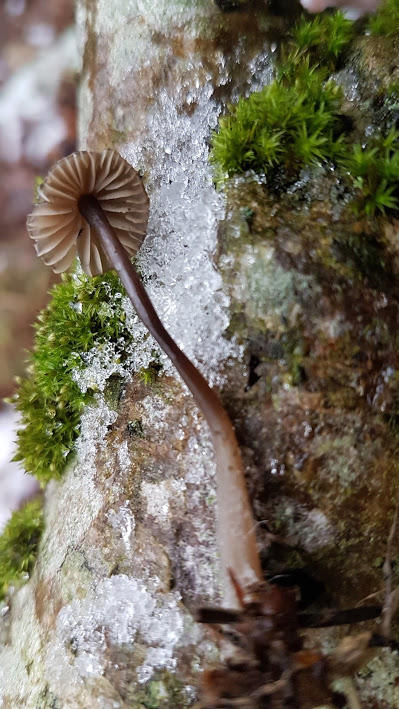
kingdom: Fungi
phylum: Basidiomycota
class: Agaricomycetes
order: Agaricales
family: Mycenaceae
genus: Mycena
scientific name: Mycena
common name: huesvamp
